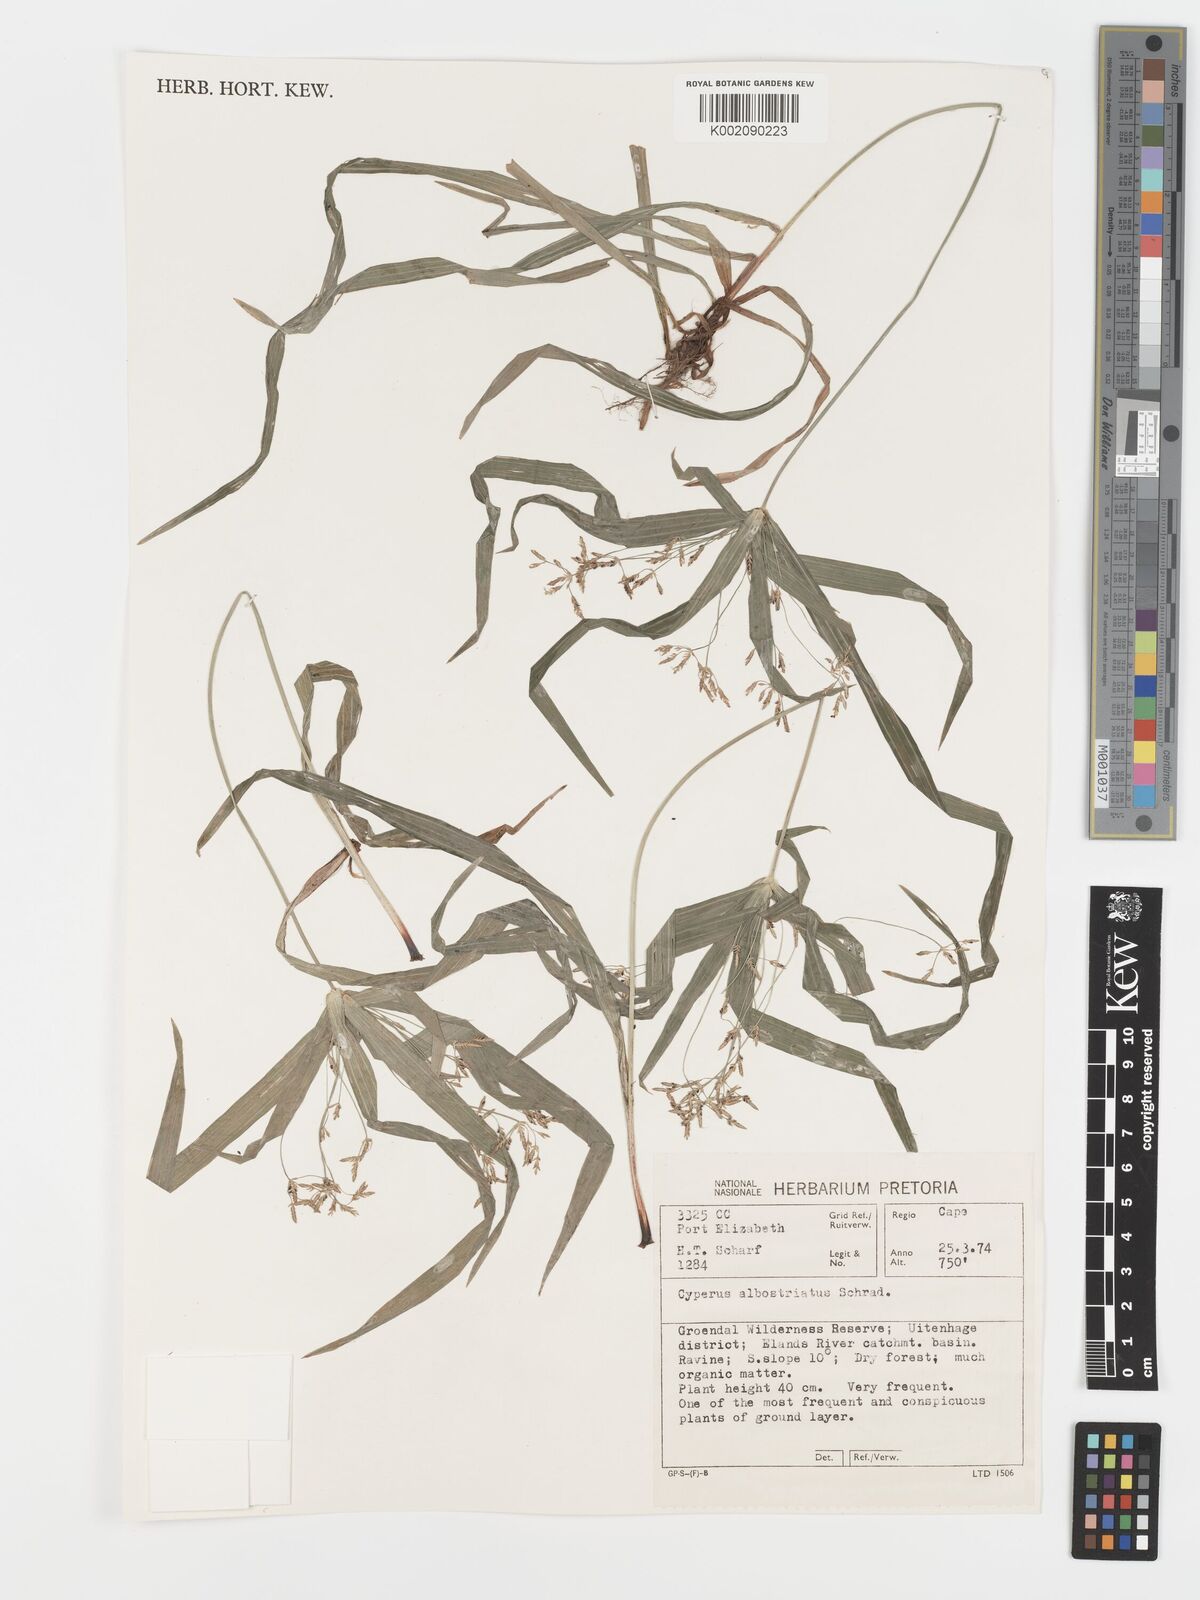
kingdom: Plantae
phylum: Tracheophyta
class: Liliopsida
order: Poales
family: Cyperaceae
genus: Cyperus
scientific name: Cyperus albostriatus
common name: Dwarf umbrella-grass
